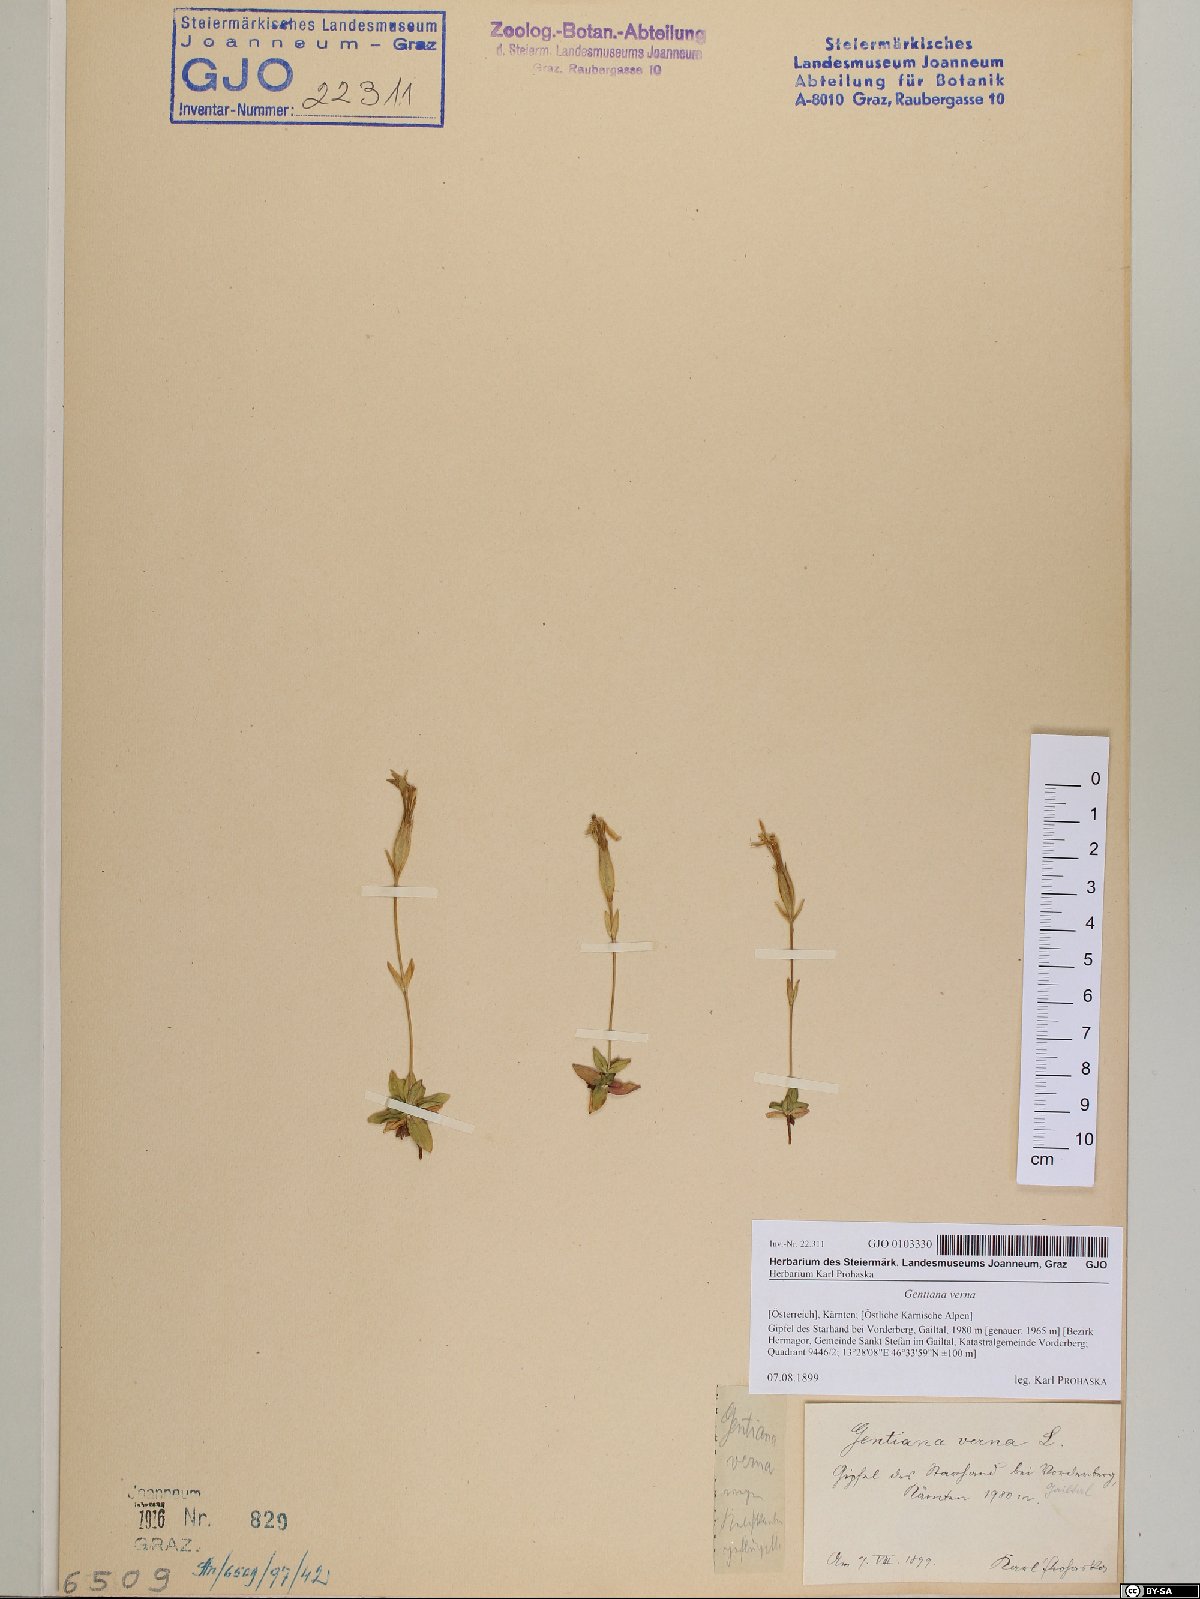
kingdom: Plantae
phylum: Tracheophyta
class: Magnoliopsida
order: Gentianales
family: Gentianaceae
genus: Gentiana
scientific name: Gentiana verna
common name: Spring gentian
